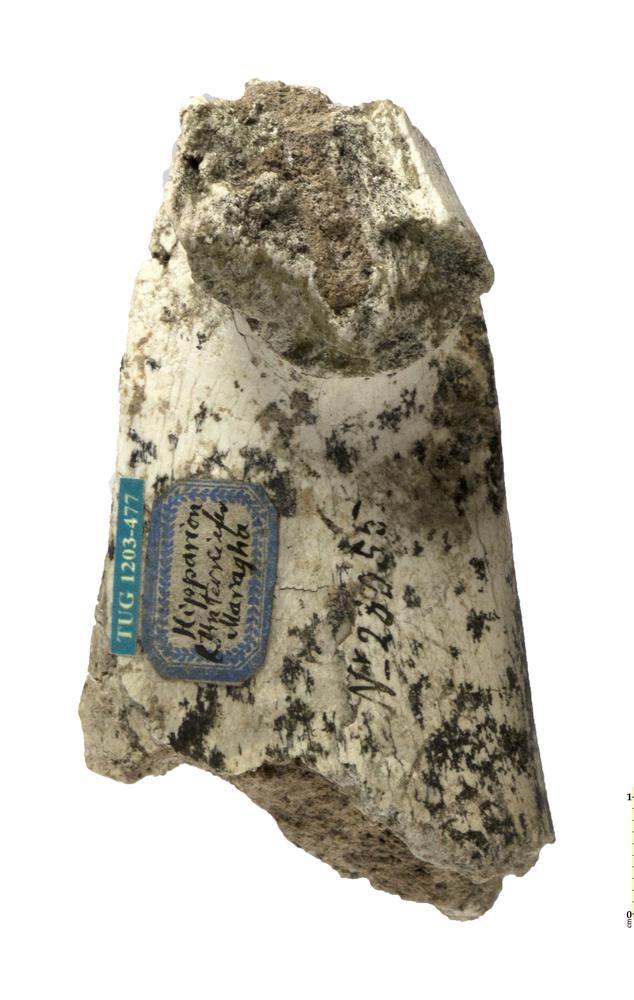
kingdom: Animalia
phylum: Chordata
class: Mammalia
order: Perissodactyla
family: Equidae
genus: Hipparion
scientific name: Hipparion
